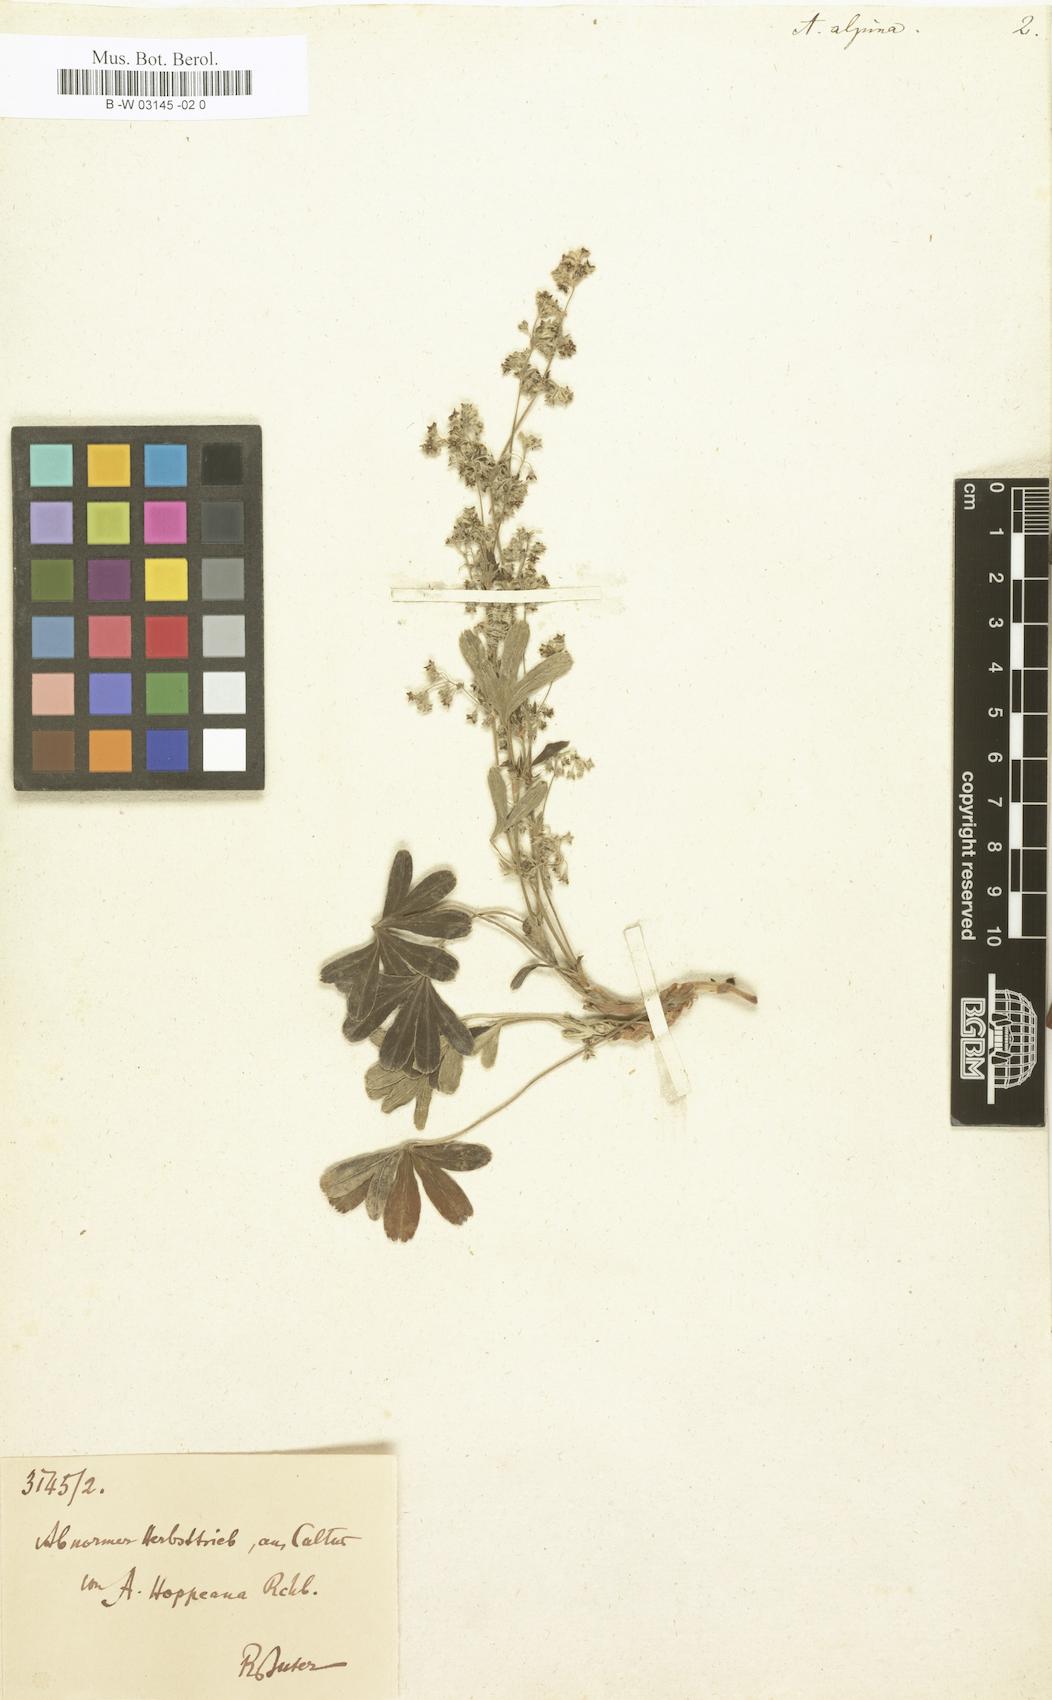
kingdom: Plantae
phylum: Tracheophyta
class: Magnoliopsida
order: Rosales
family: Rosaceae
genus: Alchemilla
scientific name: Alchemilla alpina
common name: Alpine lady's-mantle
